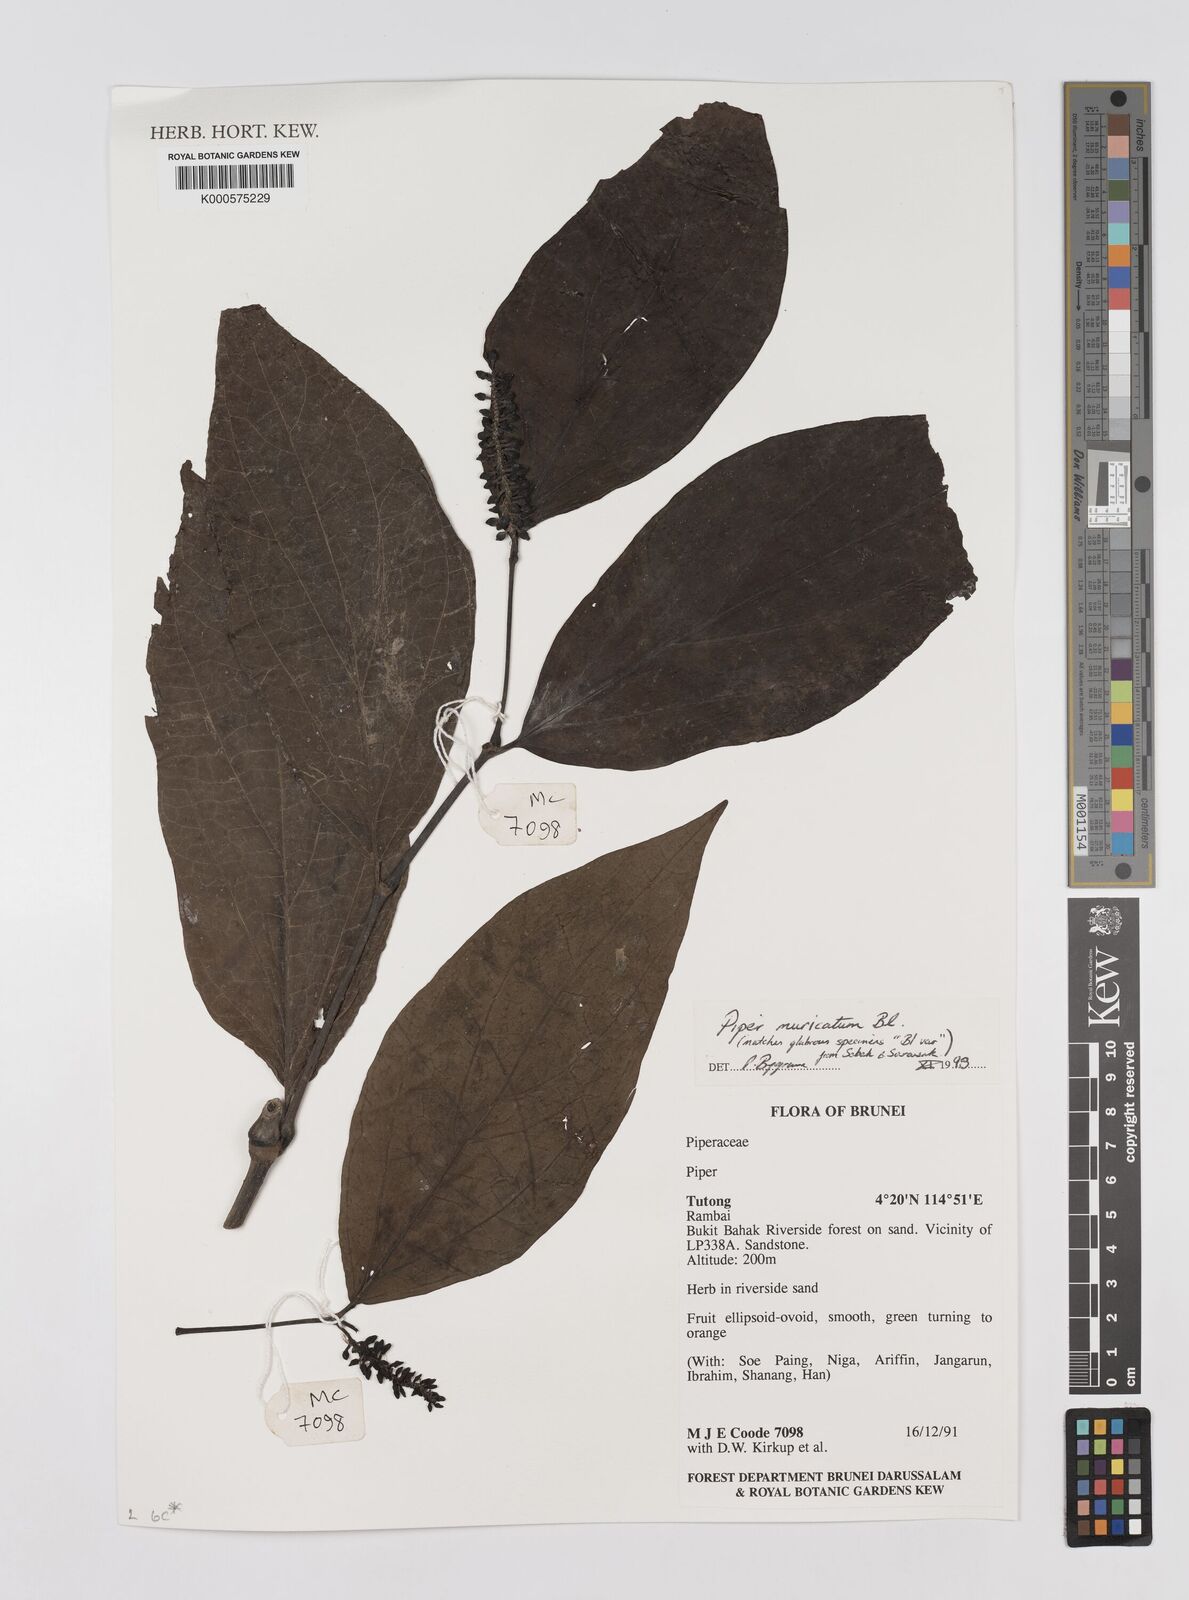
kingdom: Plantae
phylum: Tracheophyta
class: Magnoliopsida
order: Piperales
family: Piperaceae
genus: Piper
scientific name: Piper muricatum
